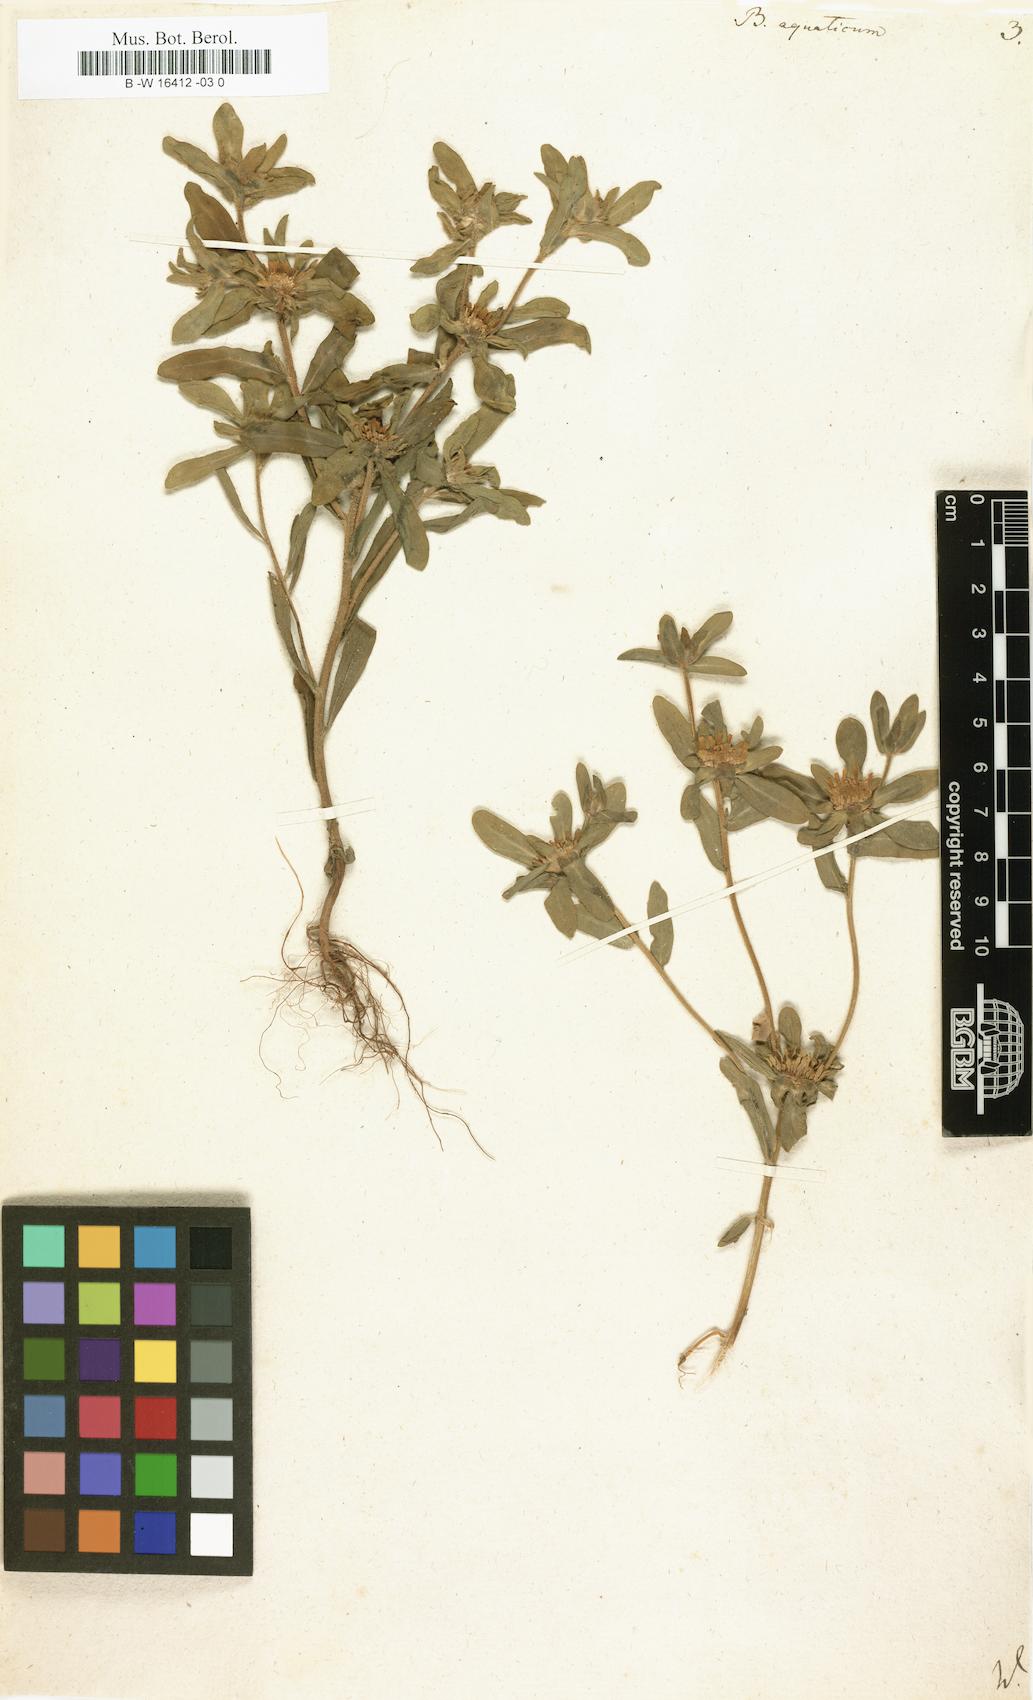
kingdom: Plantae
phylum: Tracheophyta
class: Magnoliopsida
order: Asterales
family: Asteraceae
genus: Asteriscus
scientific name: Asteriscus aquaticus
